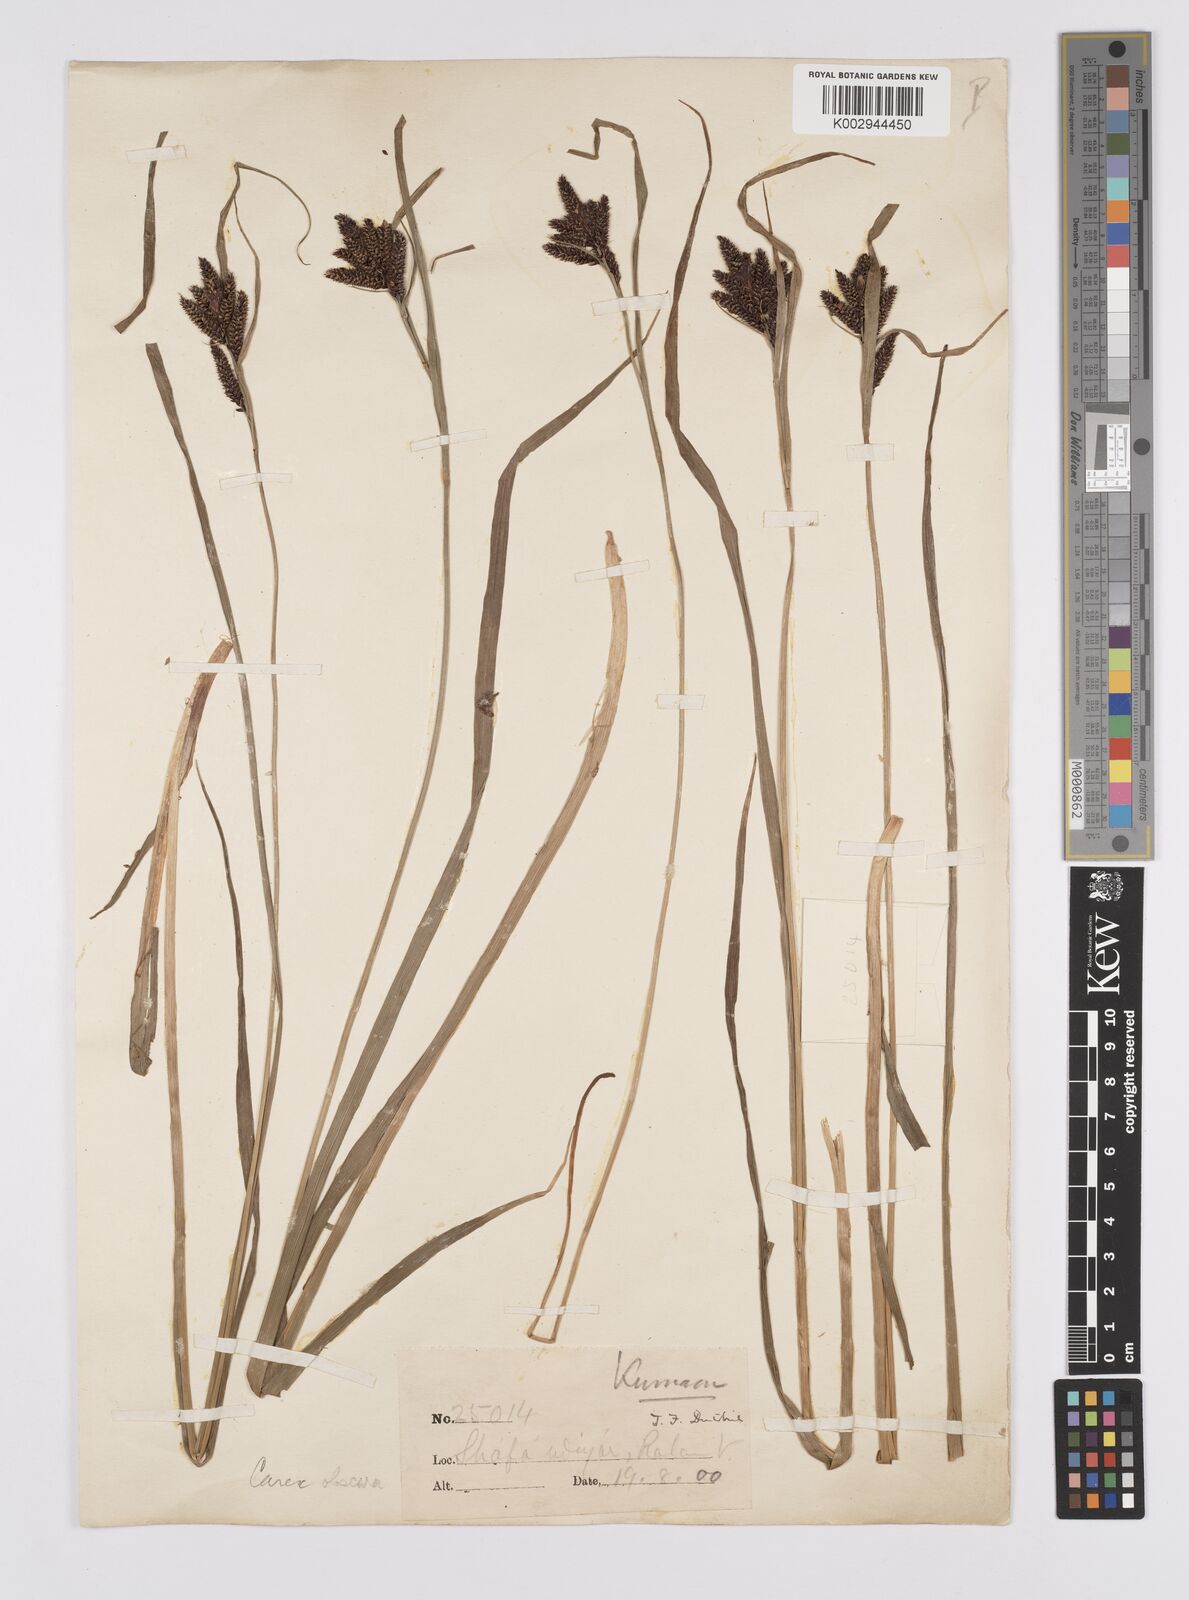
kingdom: Plantae
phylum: Tracheophyta
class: Liliopsida
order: Poales
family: Cyperaceae
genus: Carex
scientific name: Carex obscura
